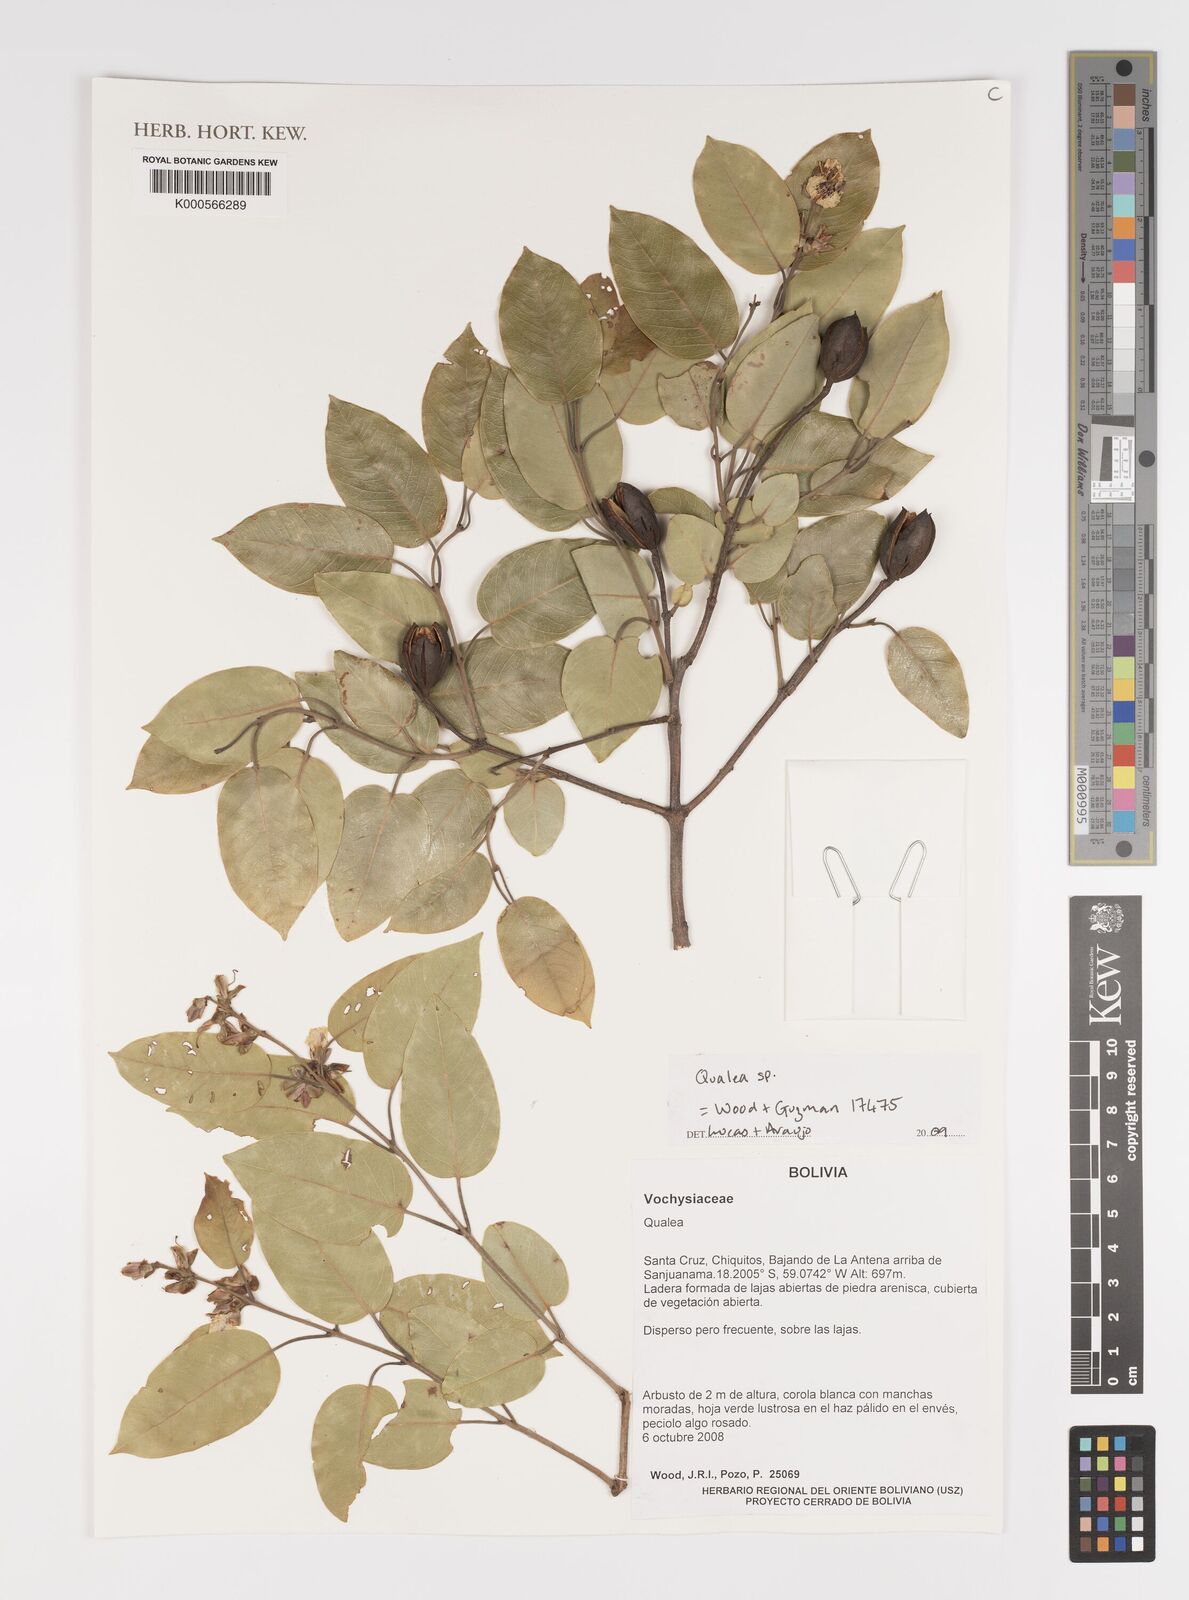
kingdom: Plantae
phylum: Tracheophyta
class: Magnoliopsida
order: Myrtales
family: Vochysiaceae
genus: Qualea
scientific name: Qualea
